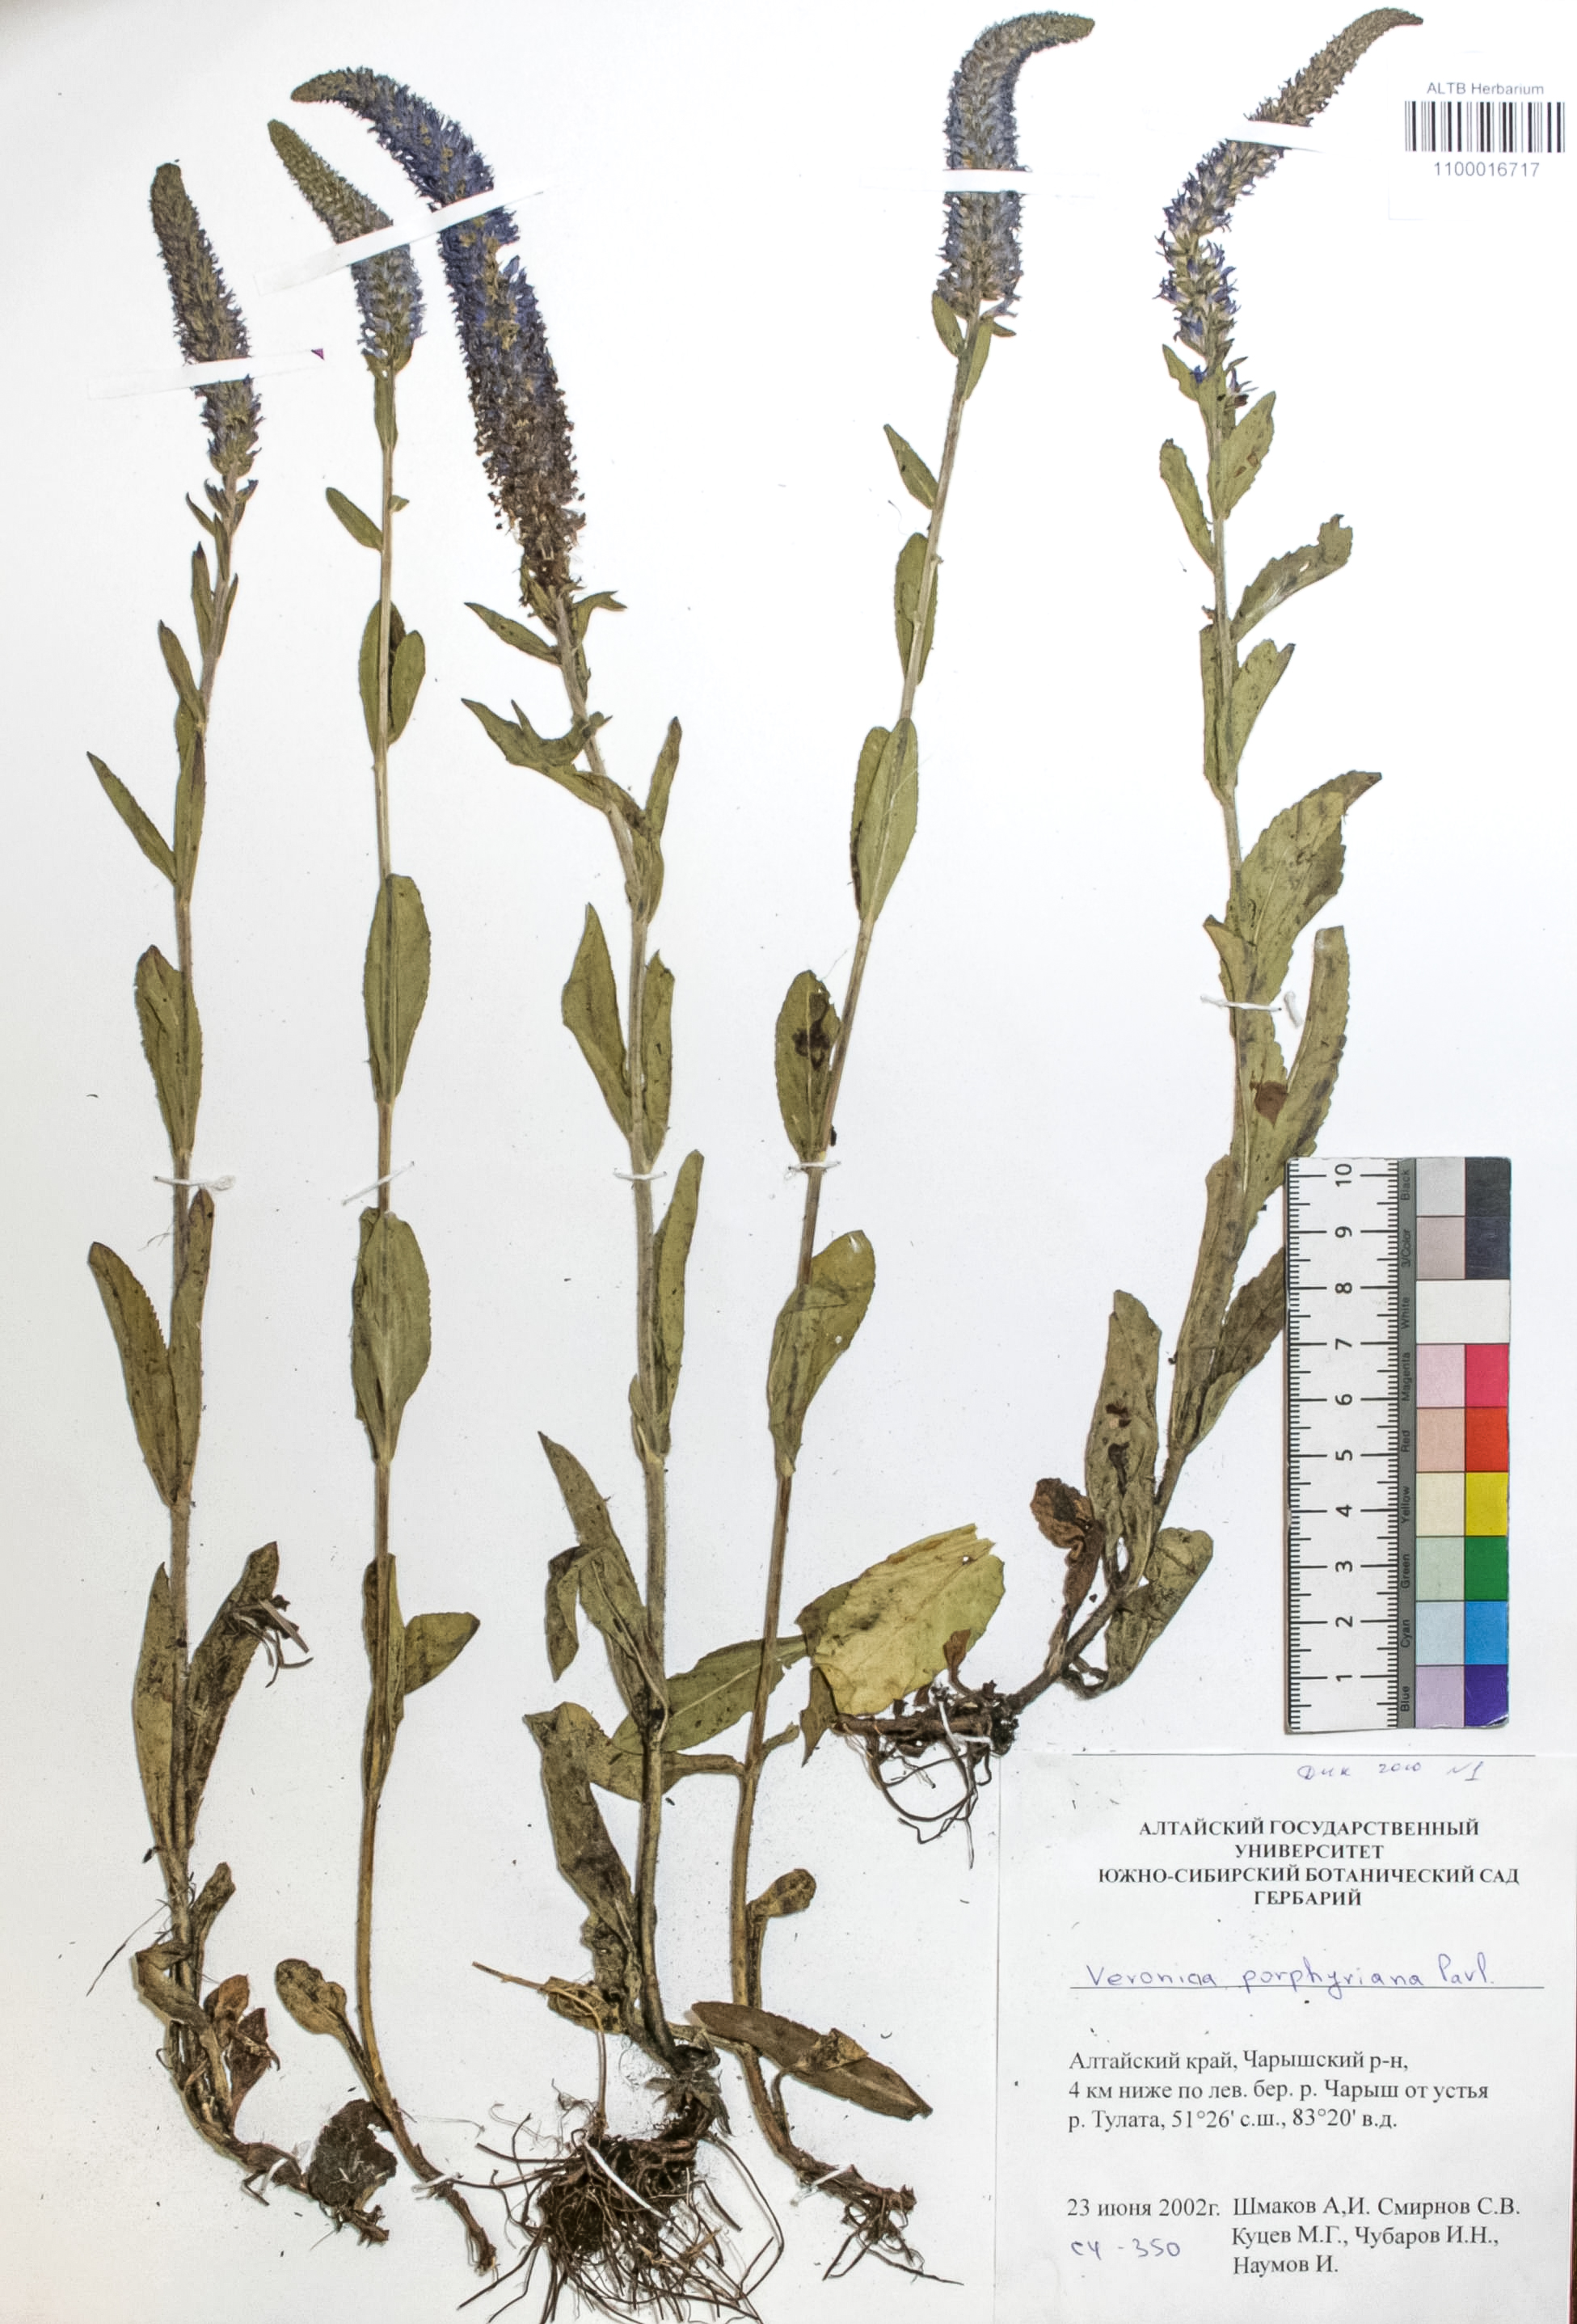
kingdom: Plantae
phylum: Tracheophyta
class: Magnoliopsida
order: Lamiales
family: Plantaginaceae
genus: Veronica
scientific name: Veronica porphyriana
